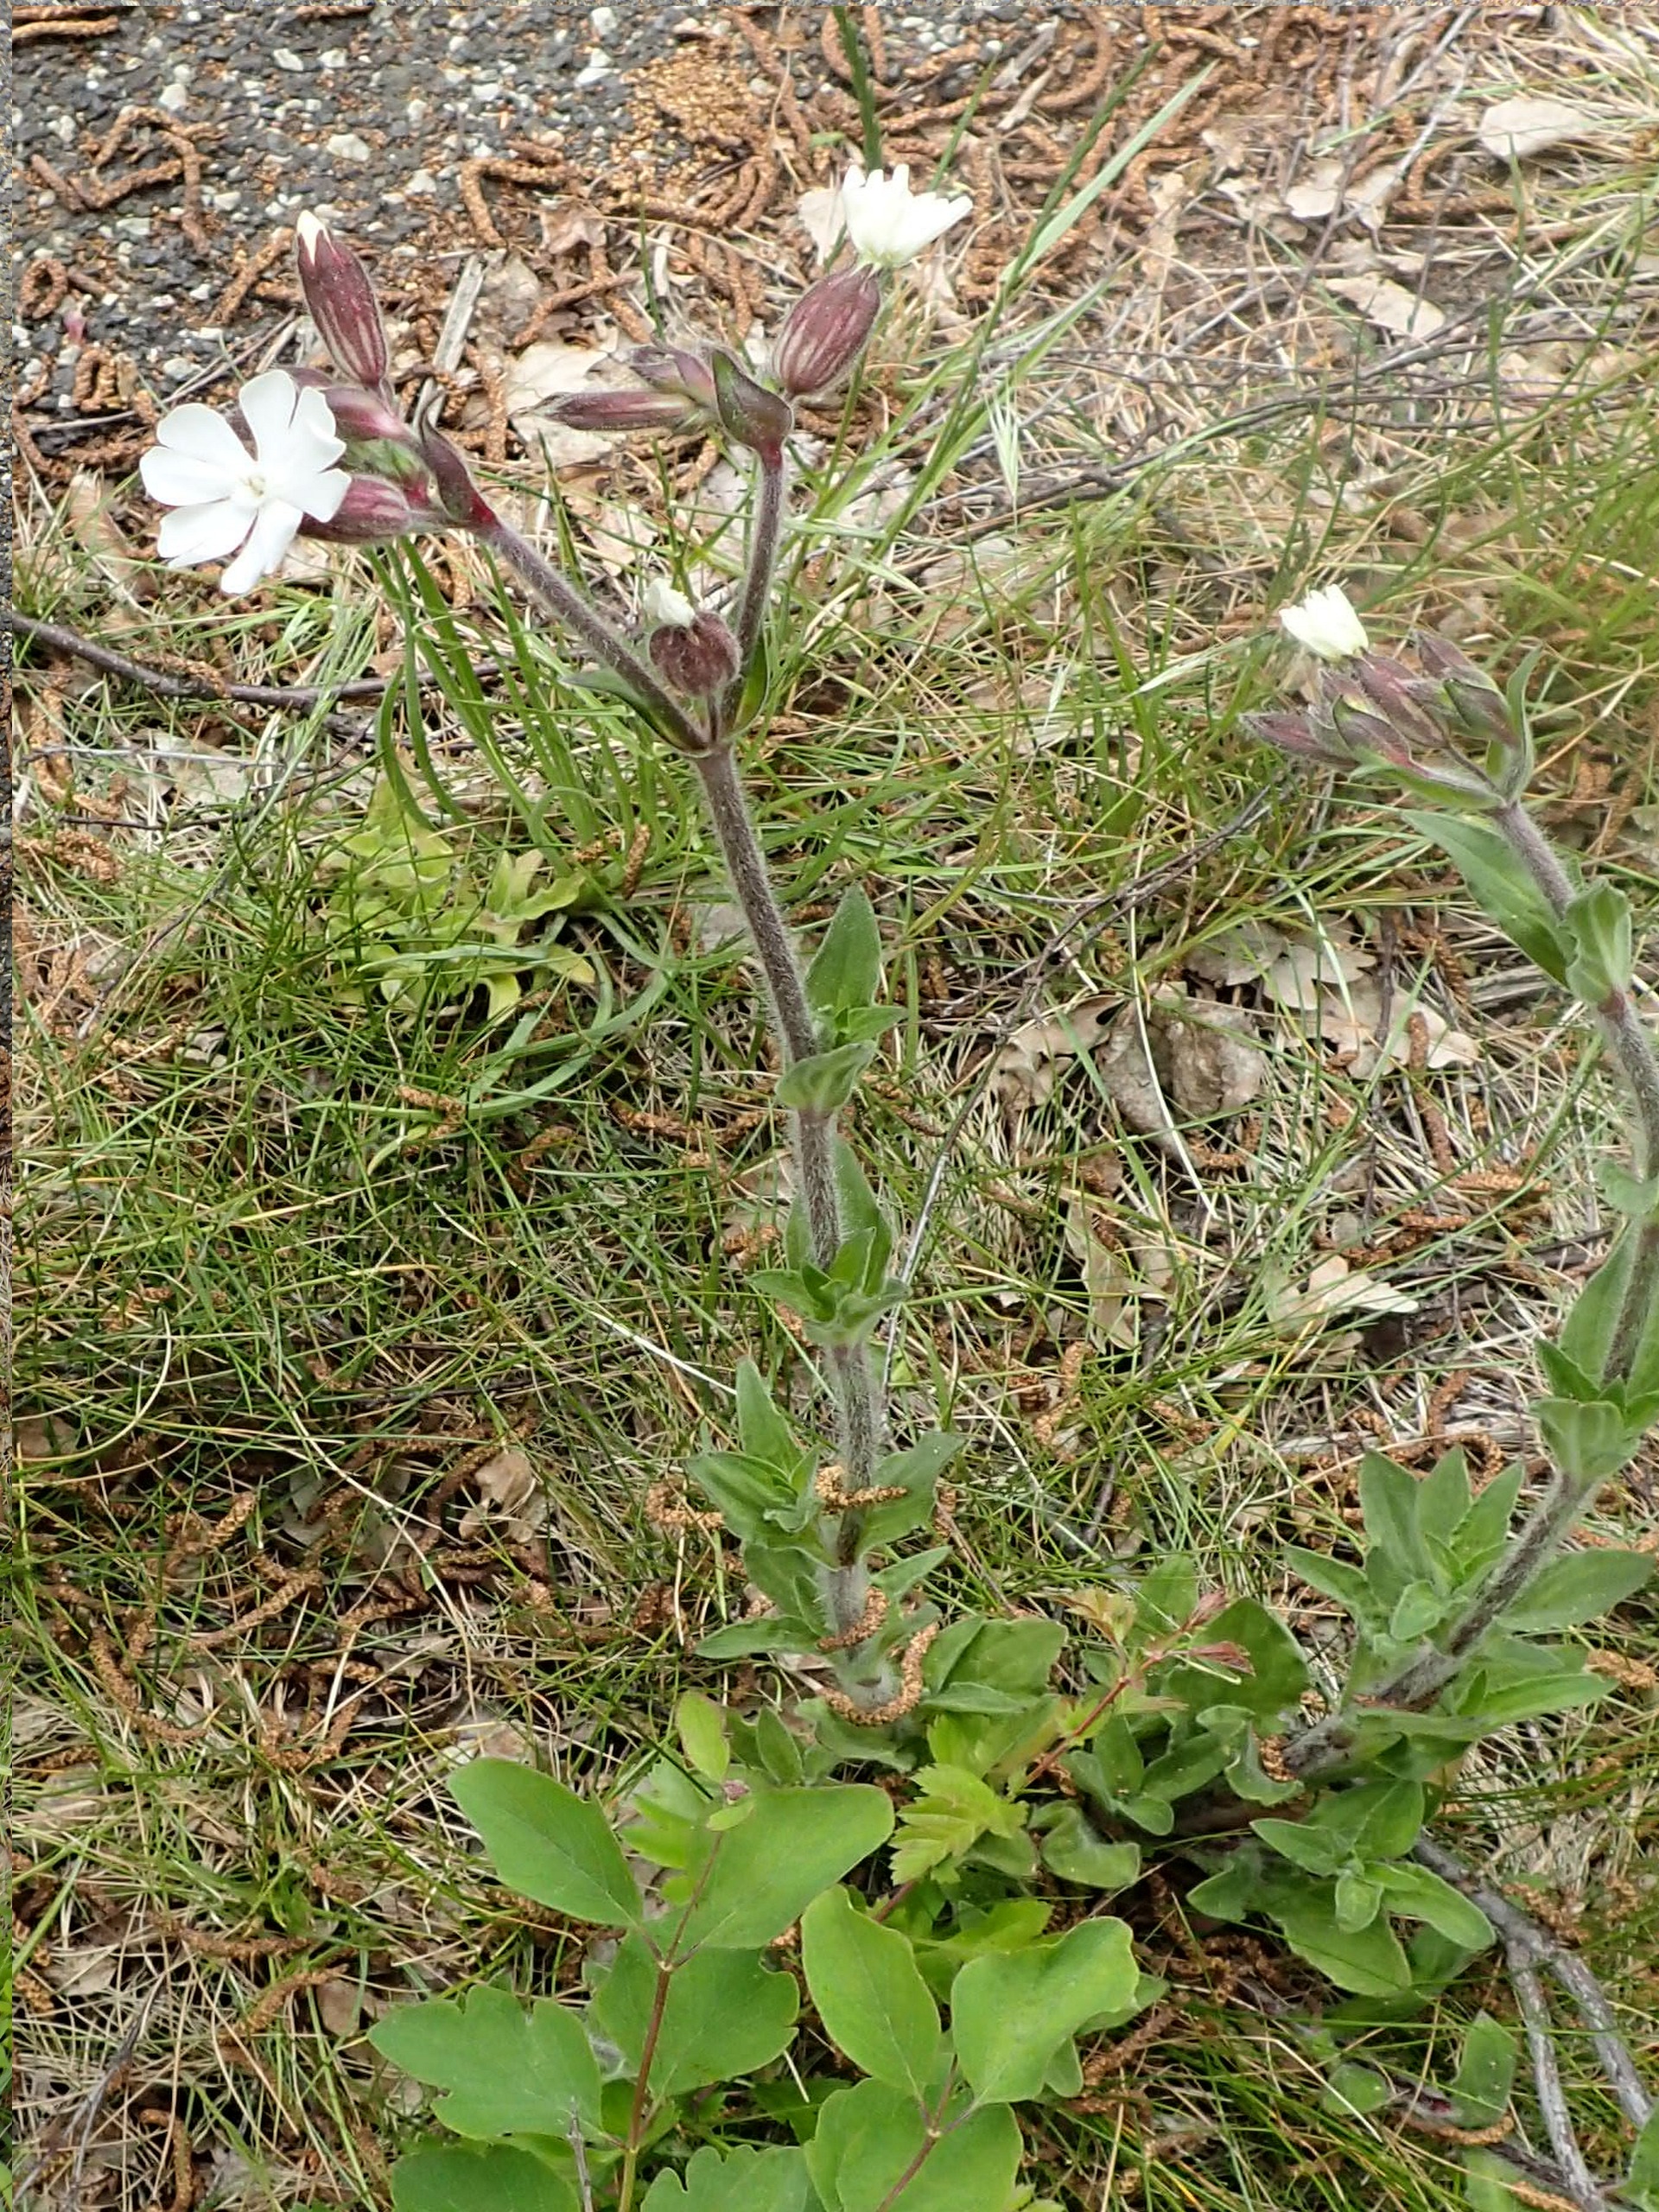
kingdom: Plantae
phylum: Tracheophyta
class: Magnoliopsida
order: Caryophyllales
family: Caryophyllaceae
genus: Silene
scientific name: Silene latifolia
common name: Aftenpragtstjerne
